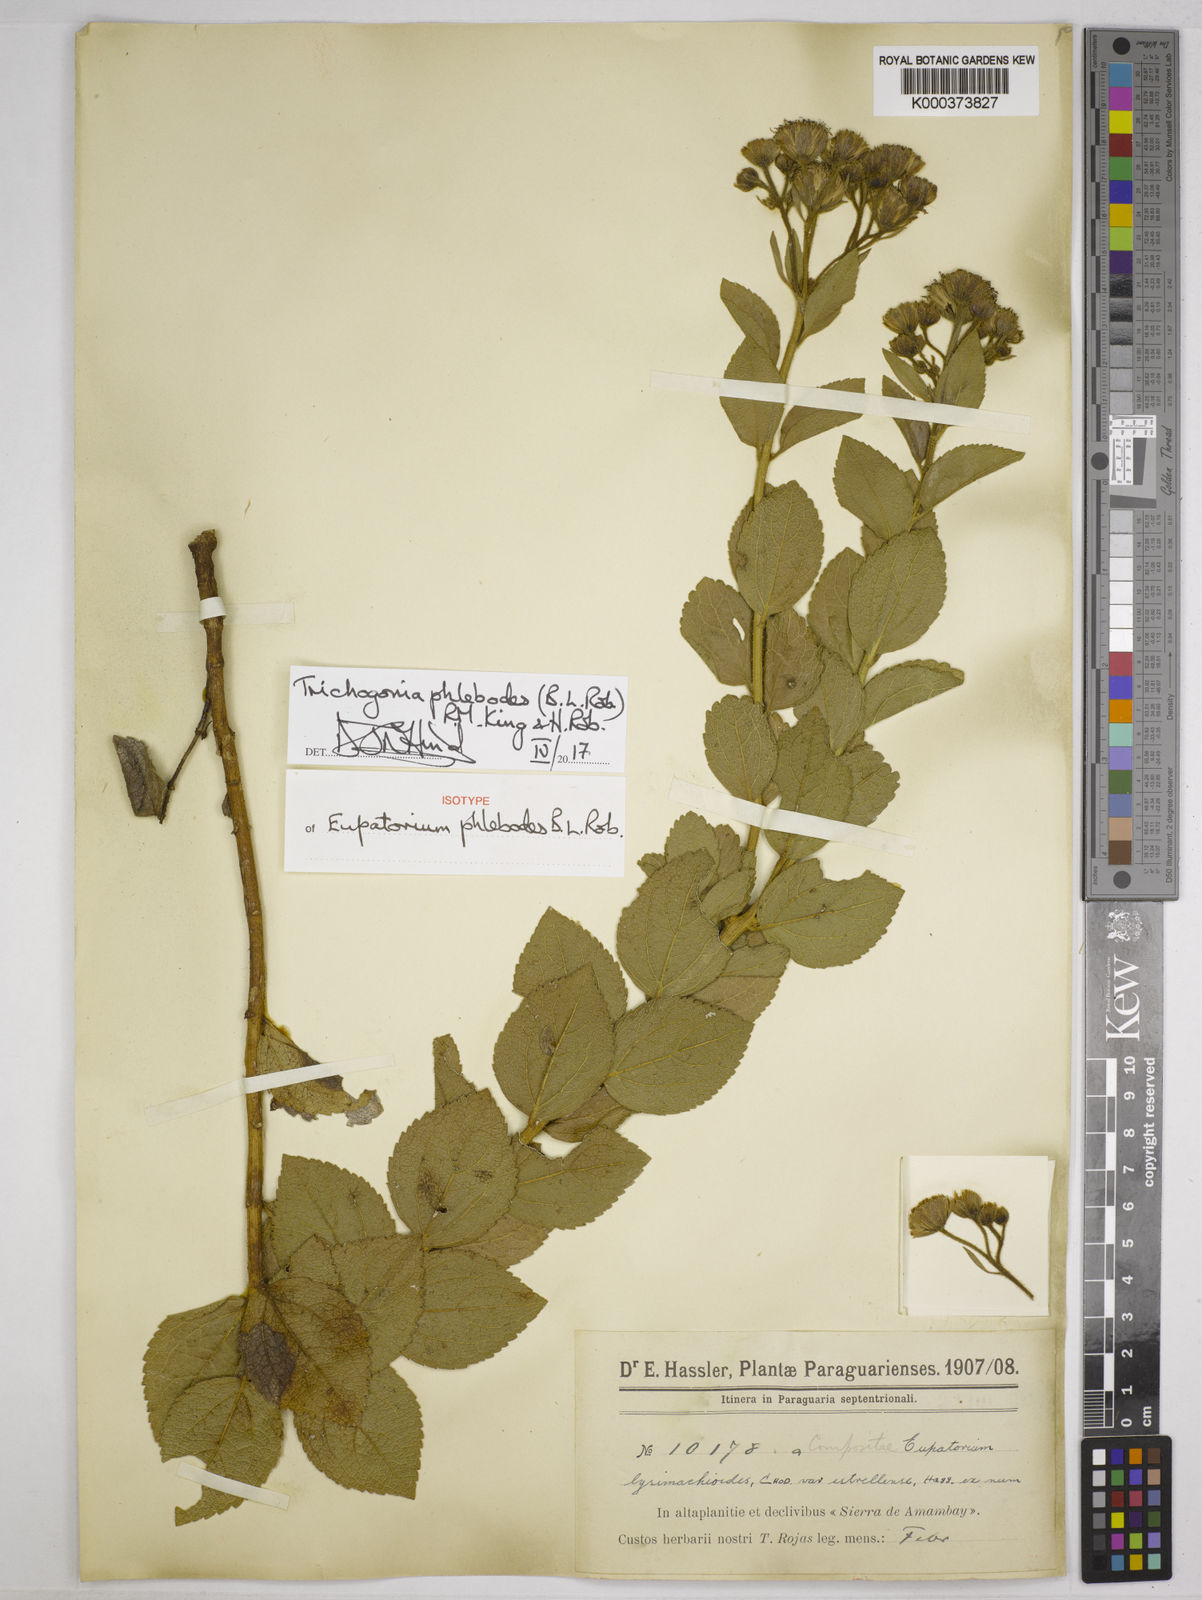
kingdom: Plantae
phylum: Tracheophyta
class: Magnoliopsida
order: Asterales
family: Asteraceae
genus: Trichogonia
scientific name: Trichogonia phlebodes
